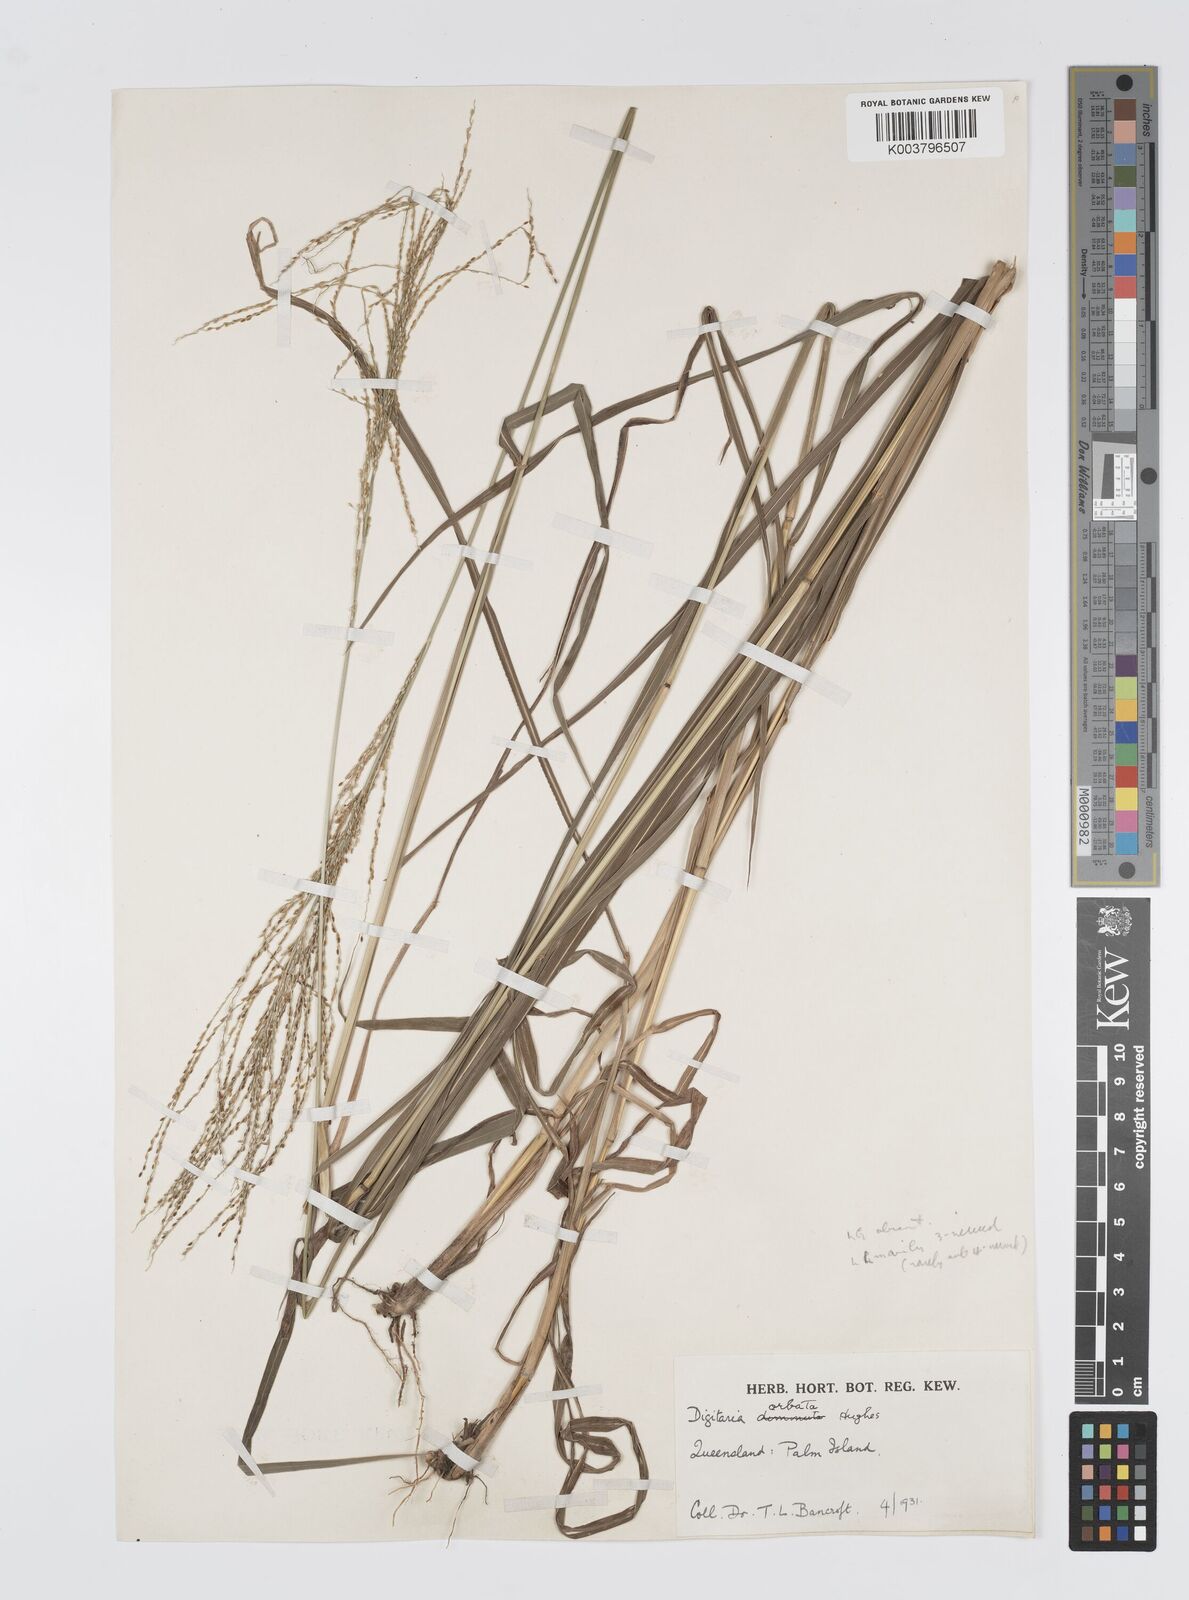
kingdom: Plantae
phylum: Tracheophyta
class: Liliopsida
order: Poales
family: Poaceae
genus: Digitaria
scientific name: Digitaria orbata
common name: Crabgrass
